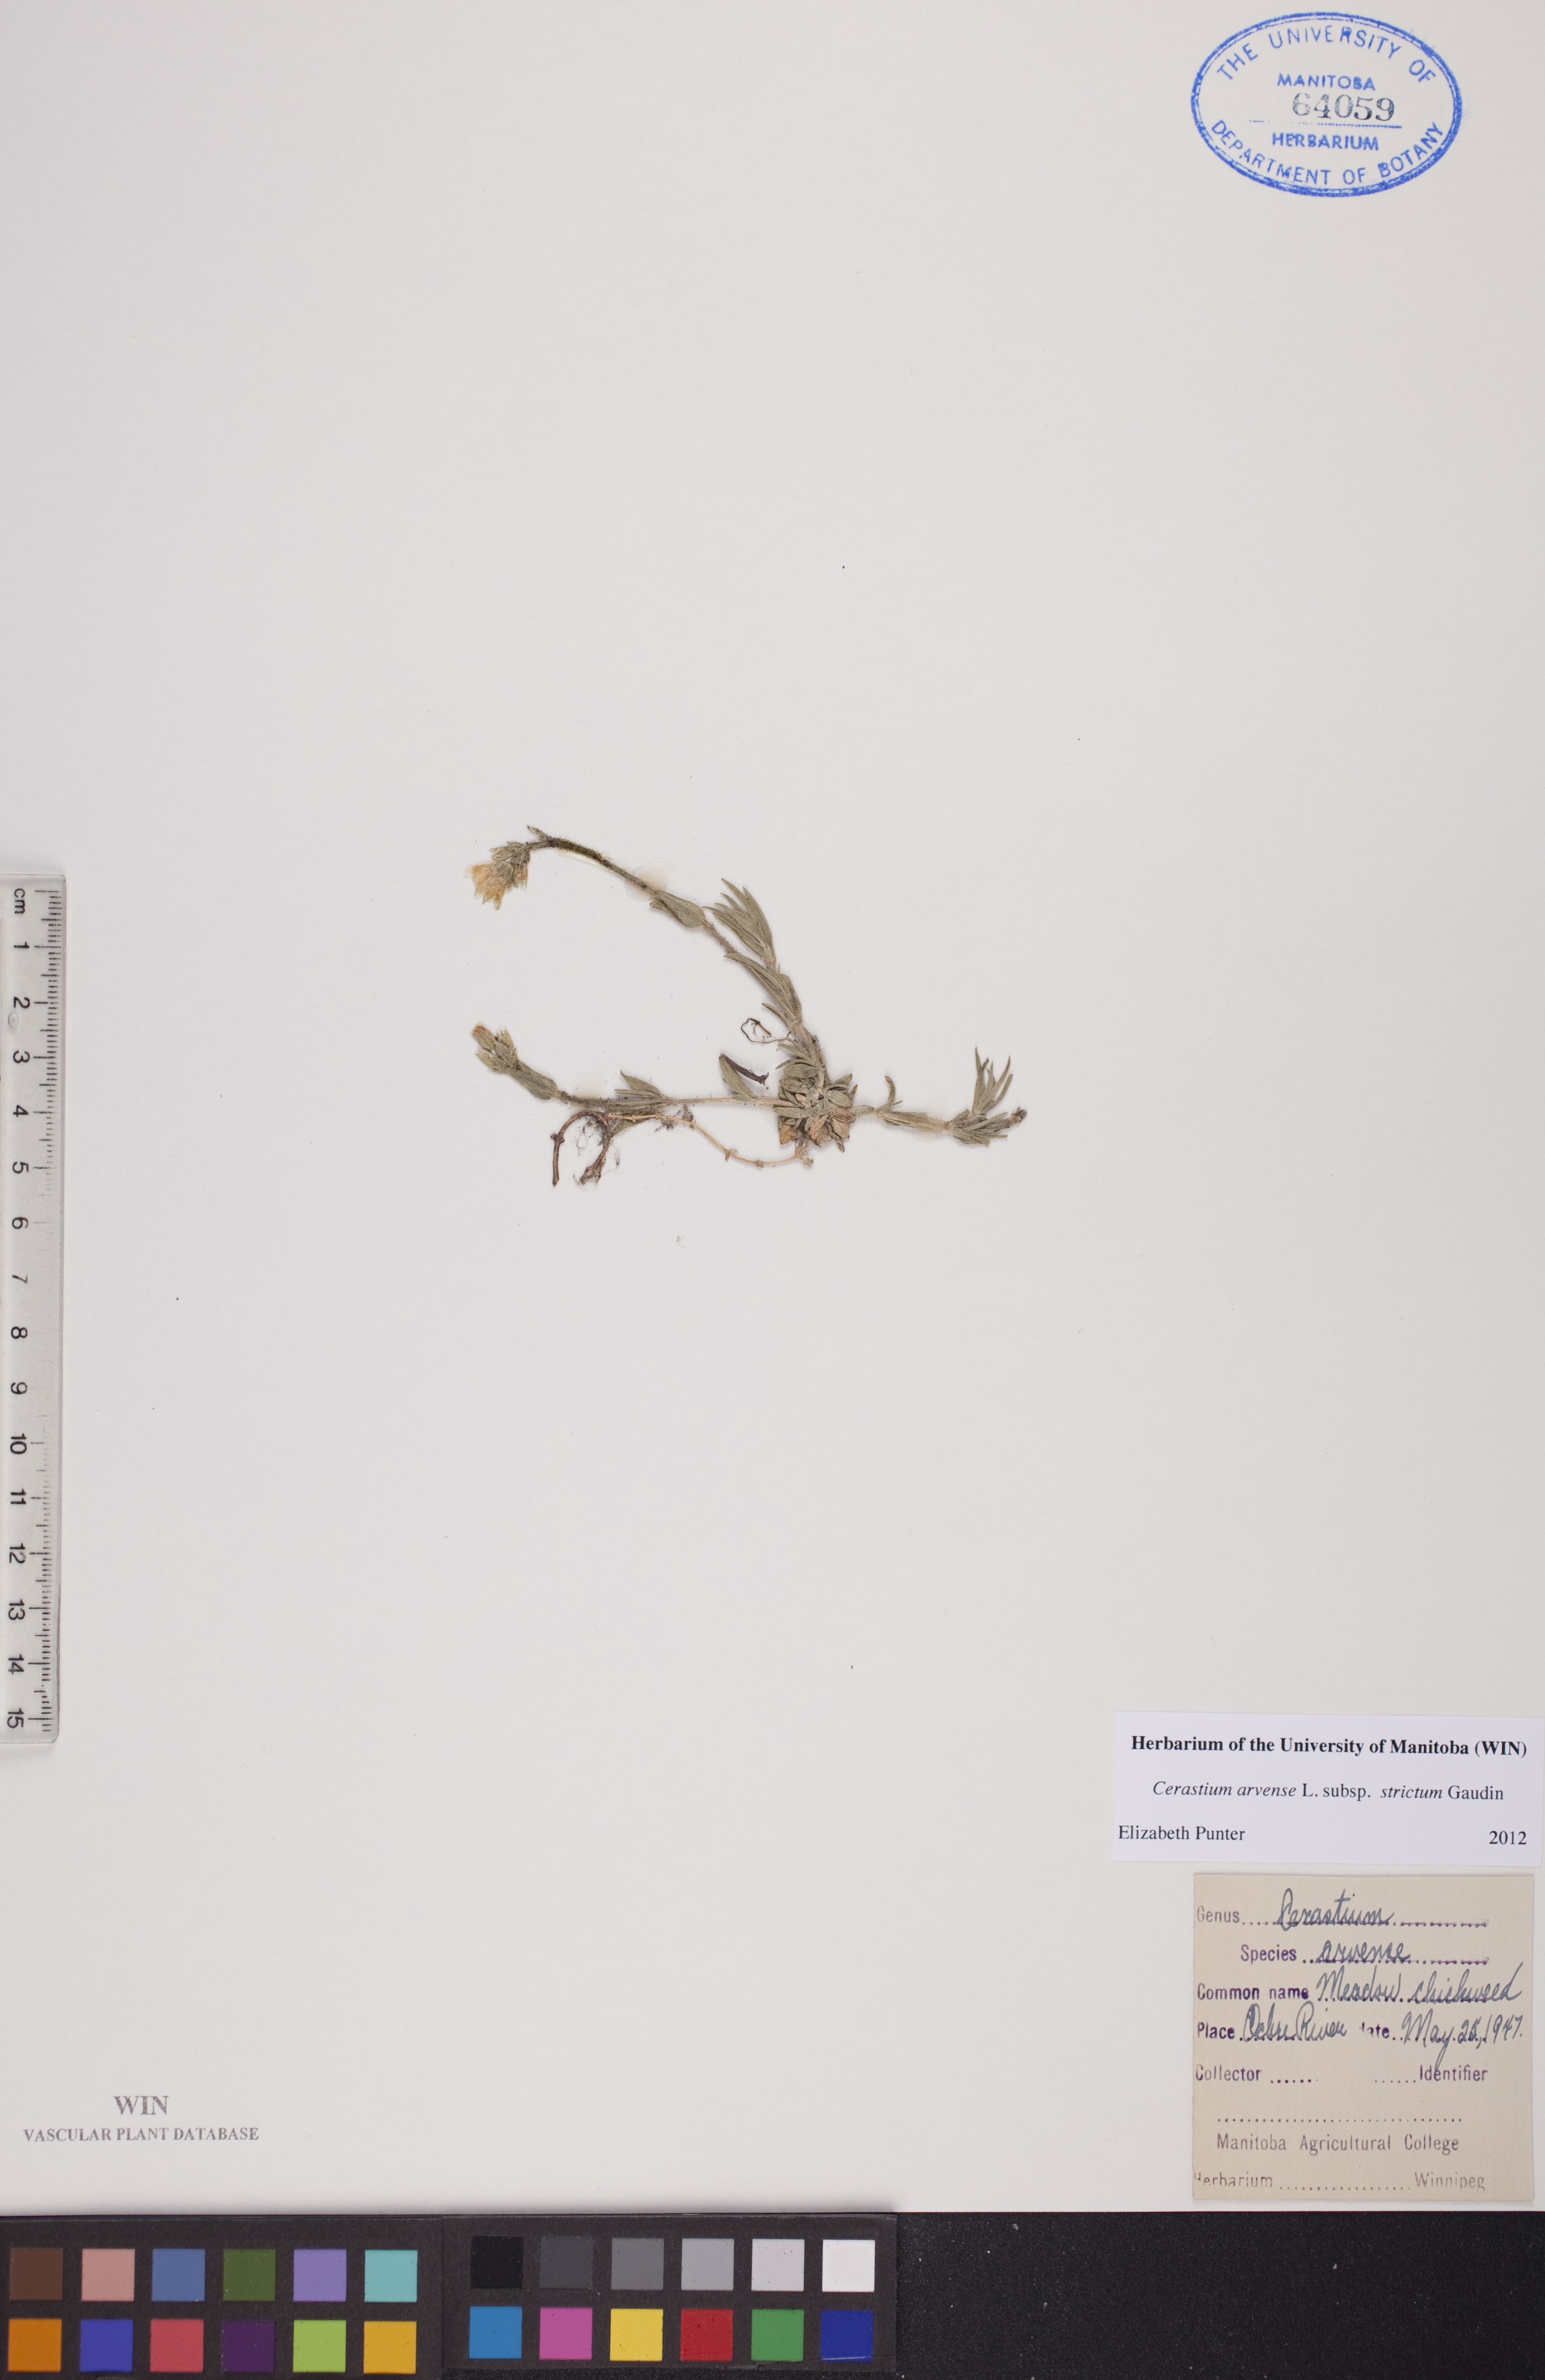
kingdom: Plantae
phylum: Tracheophyta
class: Magnoliopsida
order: Caryophyllales
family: Caryophyllaceae
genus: Cerastium
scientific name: Cerastium elongatum
